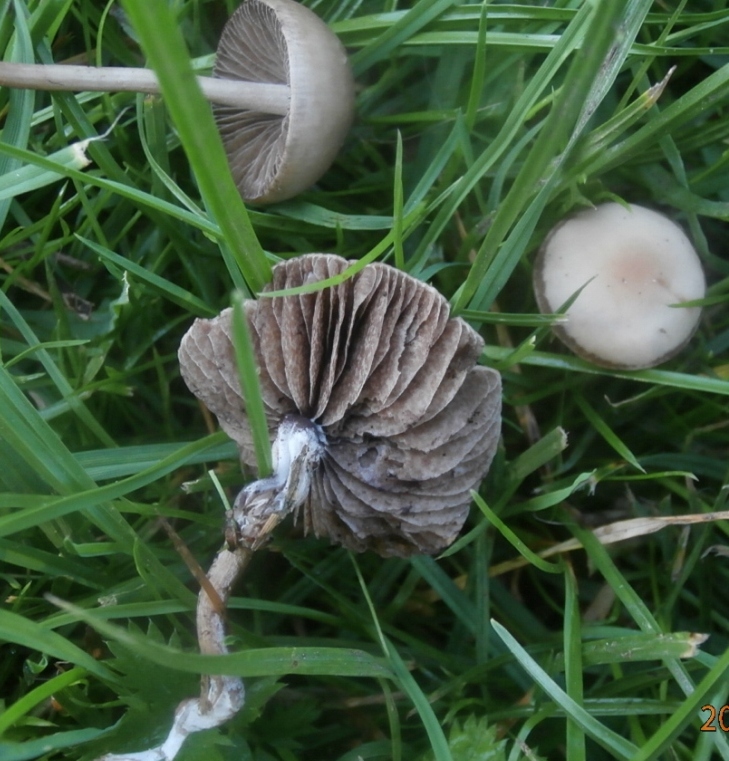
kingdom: Fungi
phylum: Basidiomycota
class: Agaricomycetes
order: Agaricales
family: Bolbitiaceae
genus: Panaeolina
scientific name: Panaeolina foenisecii
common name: høslætsvamp
